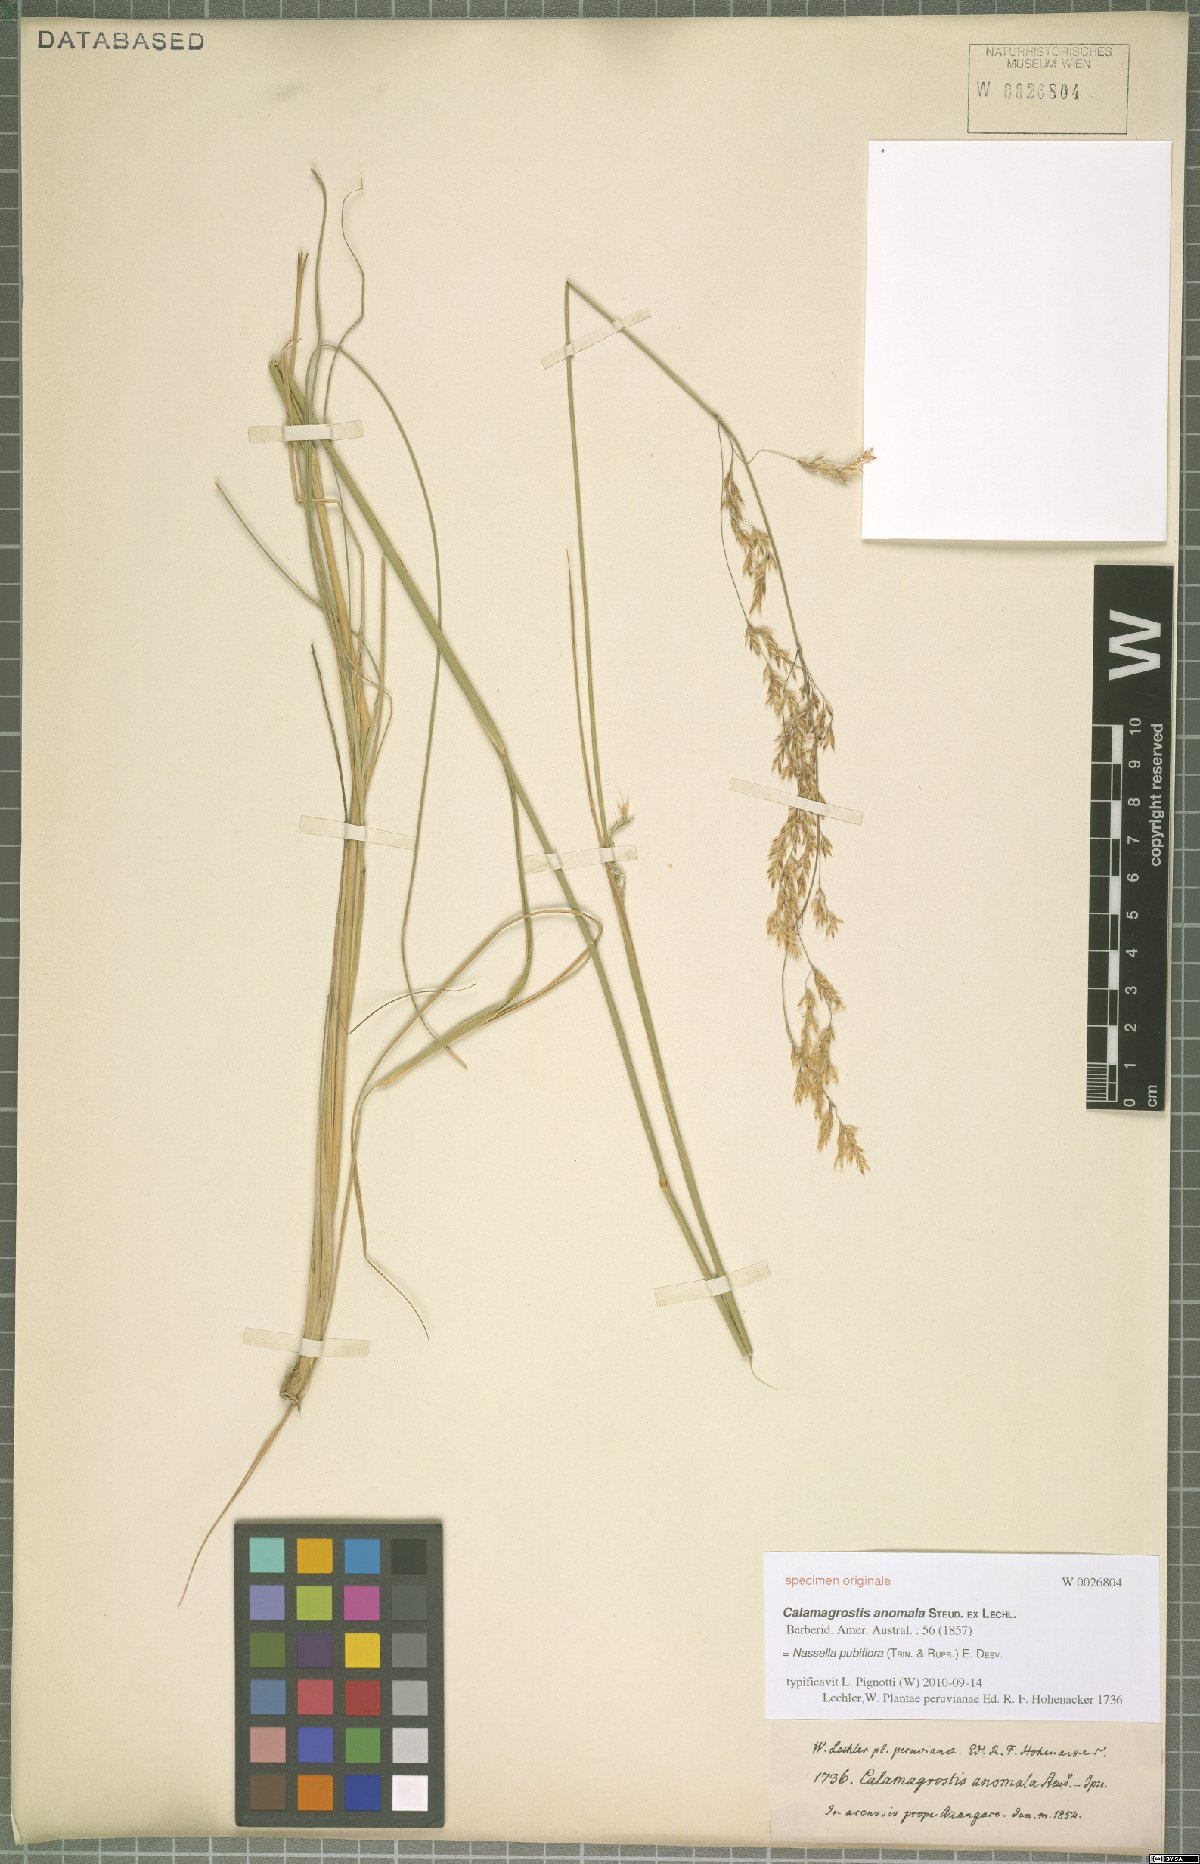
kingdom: Plantae
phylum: Tracheophyta
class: Liliopsida
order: Poales
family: Poaceae
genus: Nassella
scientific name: Nassella pubiflora
